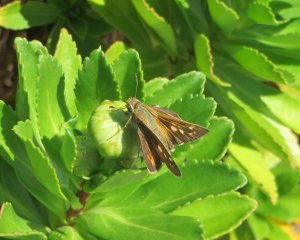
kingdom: Animalia
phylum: Arthropoda
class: Insecta
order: Lepidoptera
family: Hesperiidae
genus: Atalopedes
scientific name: Atalopedes campestris
